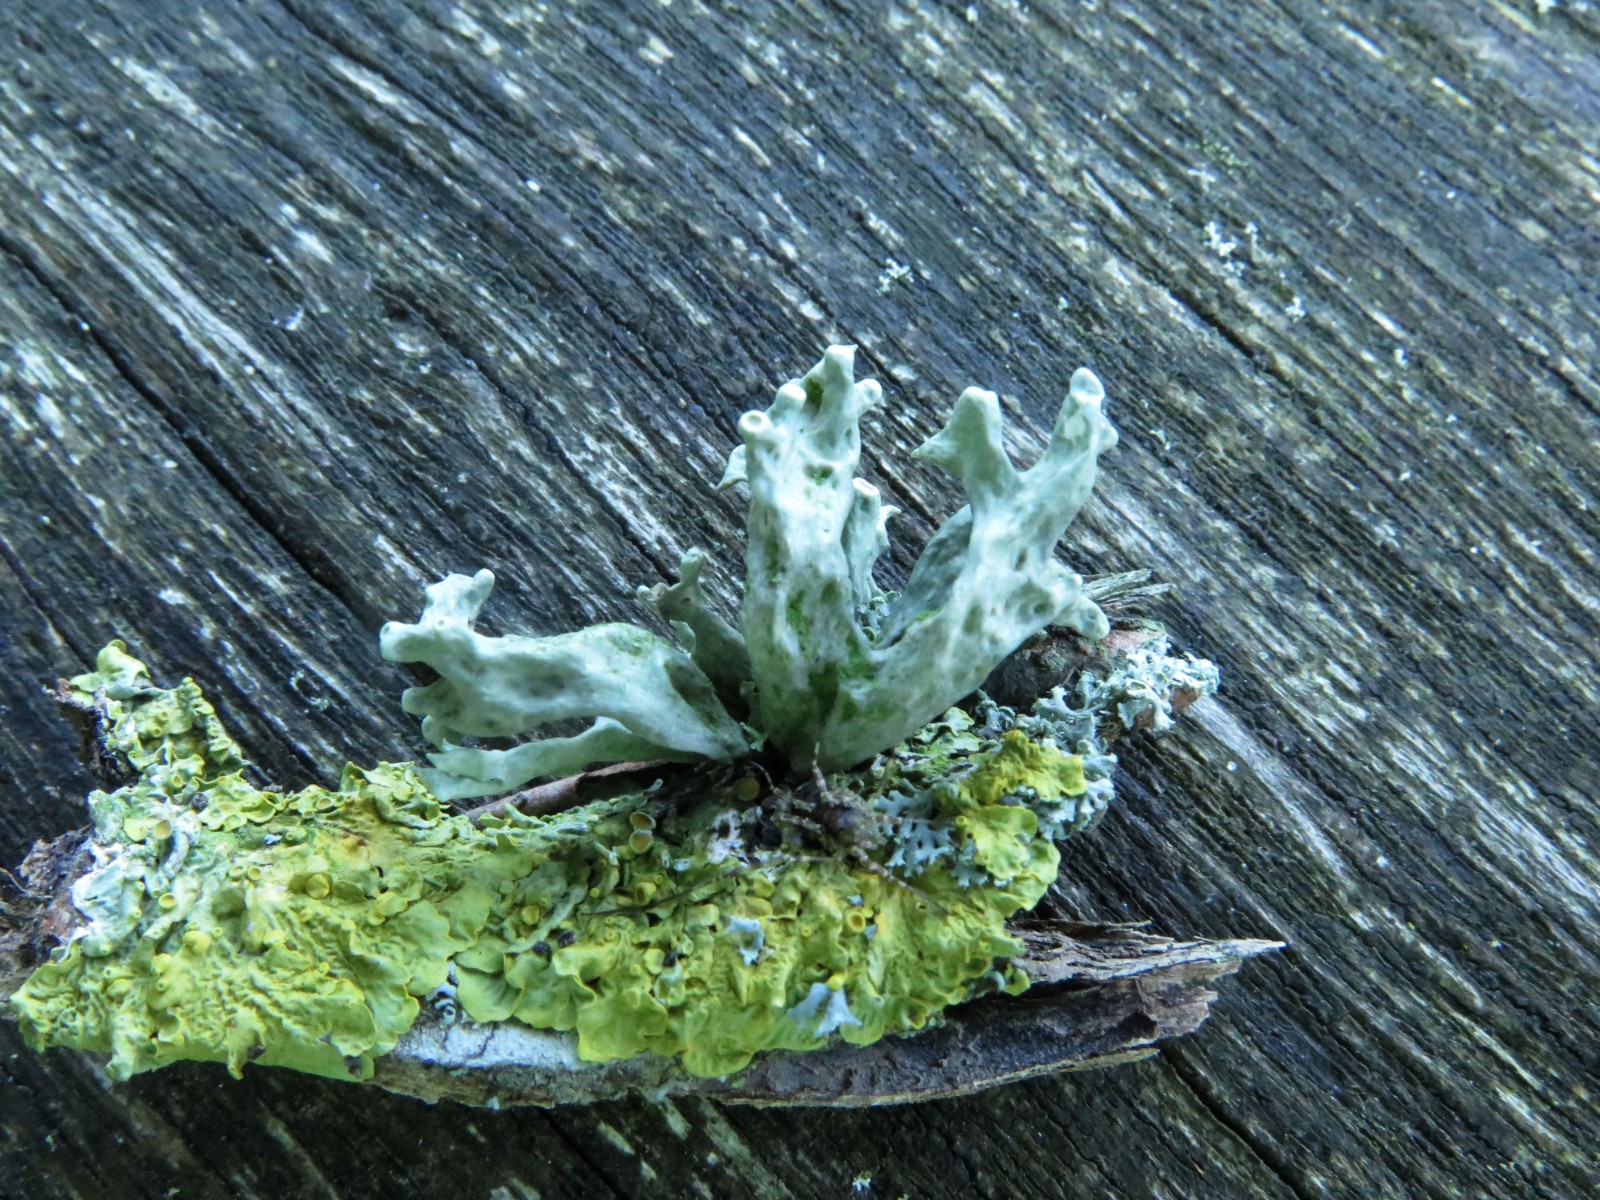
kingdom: Fungi
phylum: Ascomycota
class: Lecanoromycetes
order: Lecanorales
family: Ramalinaceae
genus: Ramalina
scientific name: Ramalina fastigiata
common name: tue-grenlav
